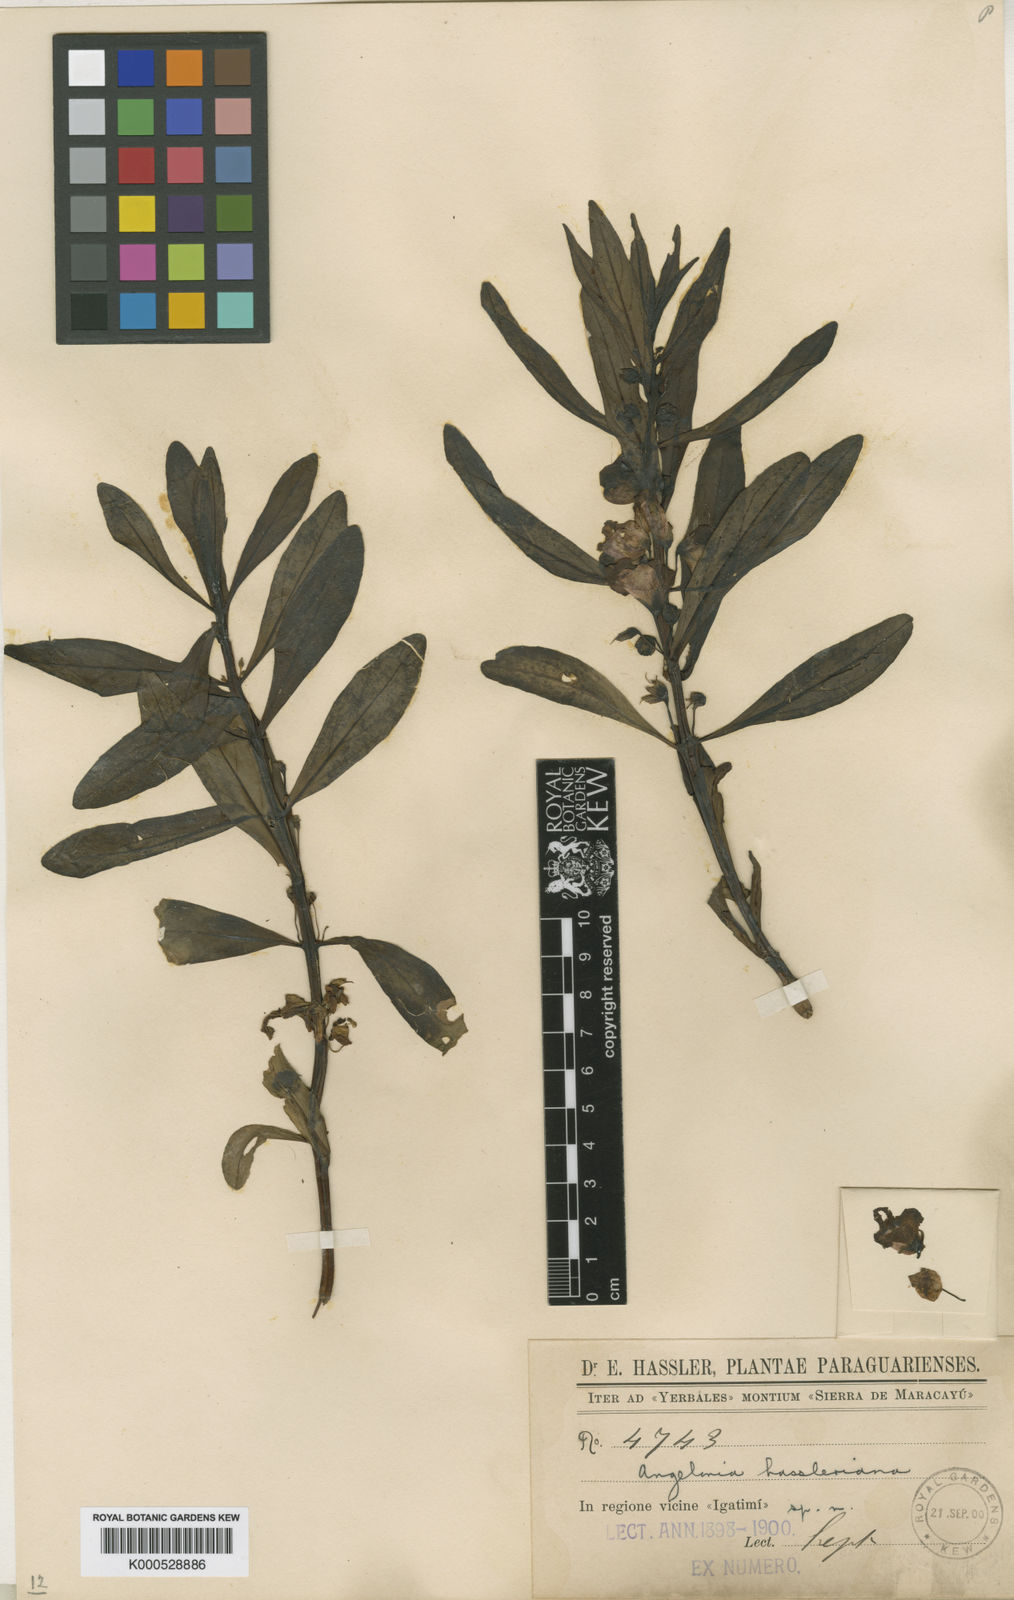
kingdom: Plantae
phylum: Tracheophyta
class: Magnoliopsida
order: Lamiales
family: Plantaginaceae
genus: Angelonia
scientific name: Angelonia hassleriana
